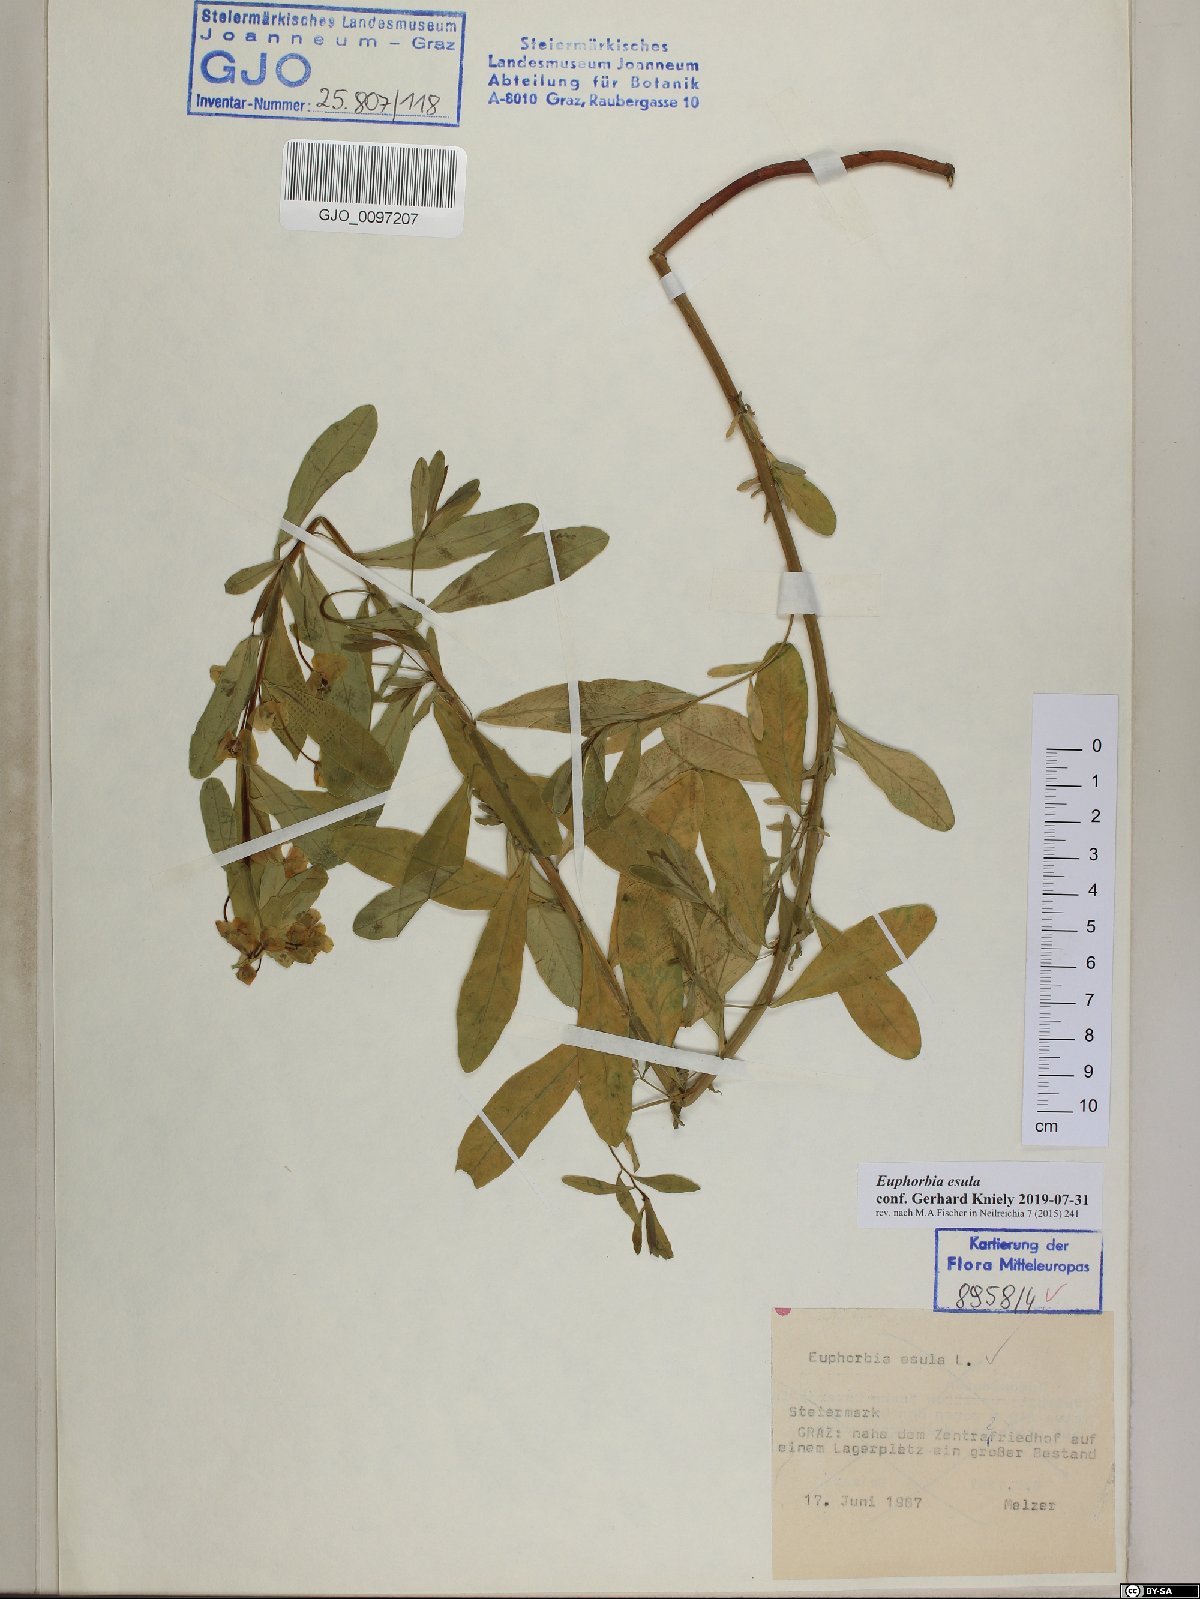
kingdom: Plantae
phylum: Tracheophyta
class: Magnoliopsida
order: Malpighiales
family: Euphorbiaceae
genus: Euphorbia
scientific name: Euphorbia esula
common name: Leafy spurge
